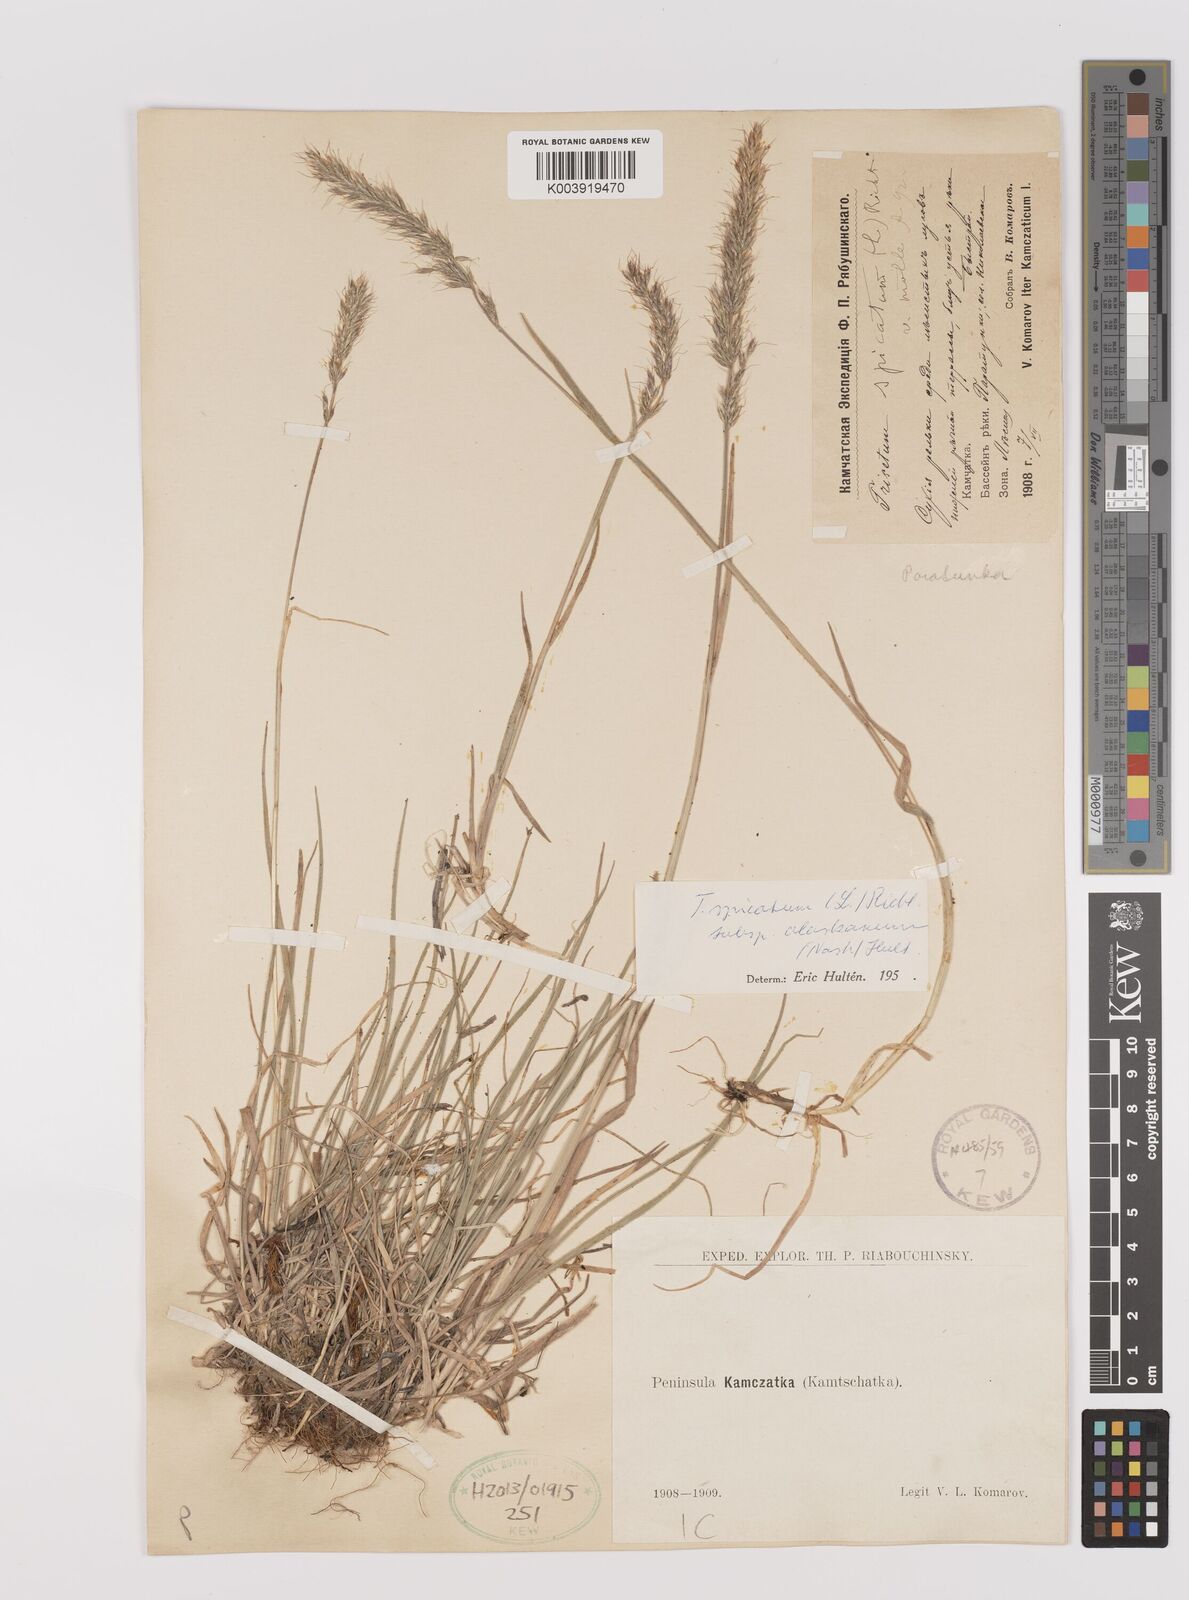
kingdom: Plantae
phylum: Tracheophyta
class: Liliopsida
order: Poales
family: Poaceae
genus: Koeleria
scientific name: Koeleria spicata
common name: Mountain trisetum
